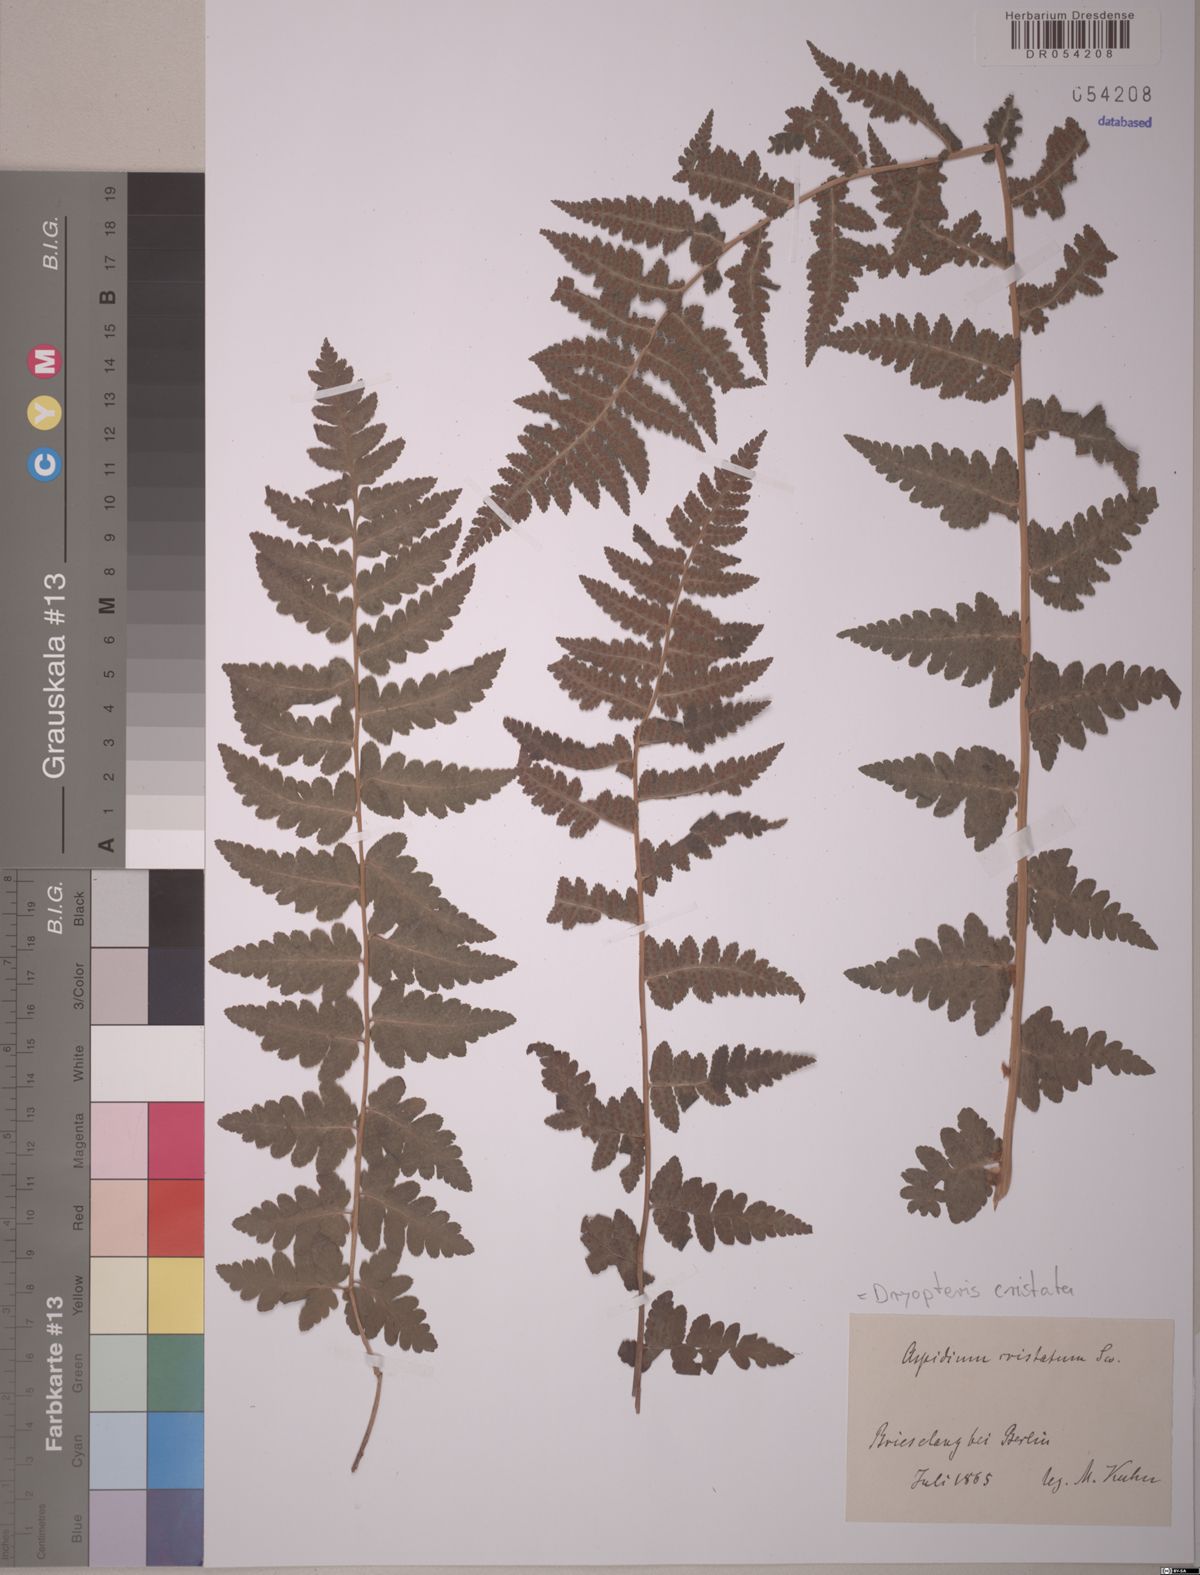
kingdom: Plantae
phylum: Tracheophyta
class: Polypodiopsida
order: Polypodiales
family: Dryopteridaceae
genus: Dryopteris
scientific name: Dryopteris cristata
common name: Crested wood fern
